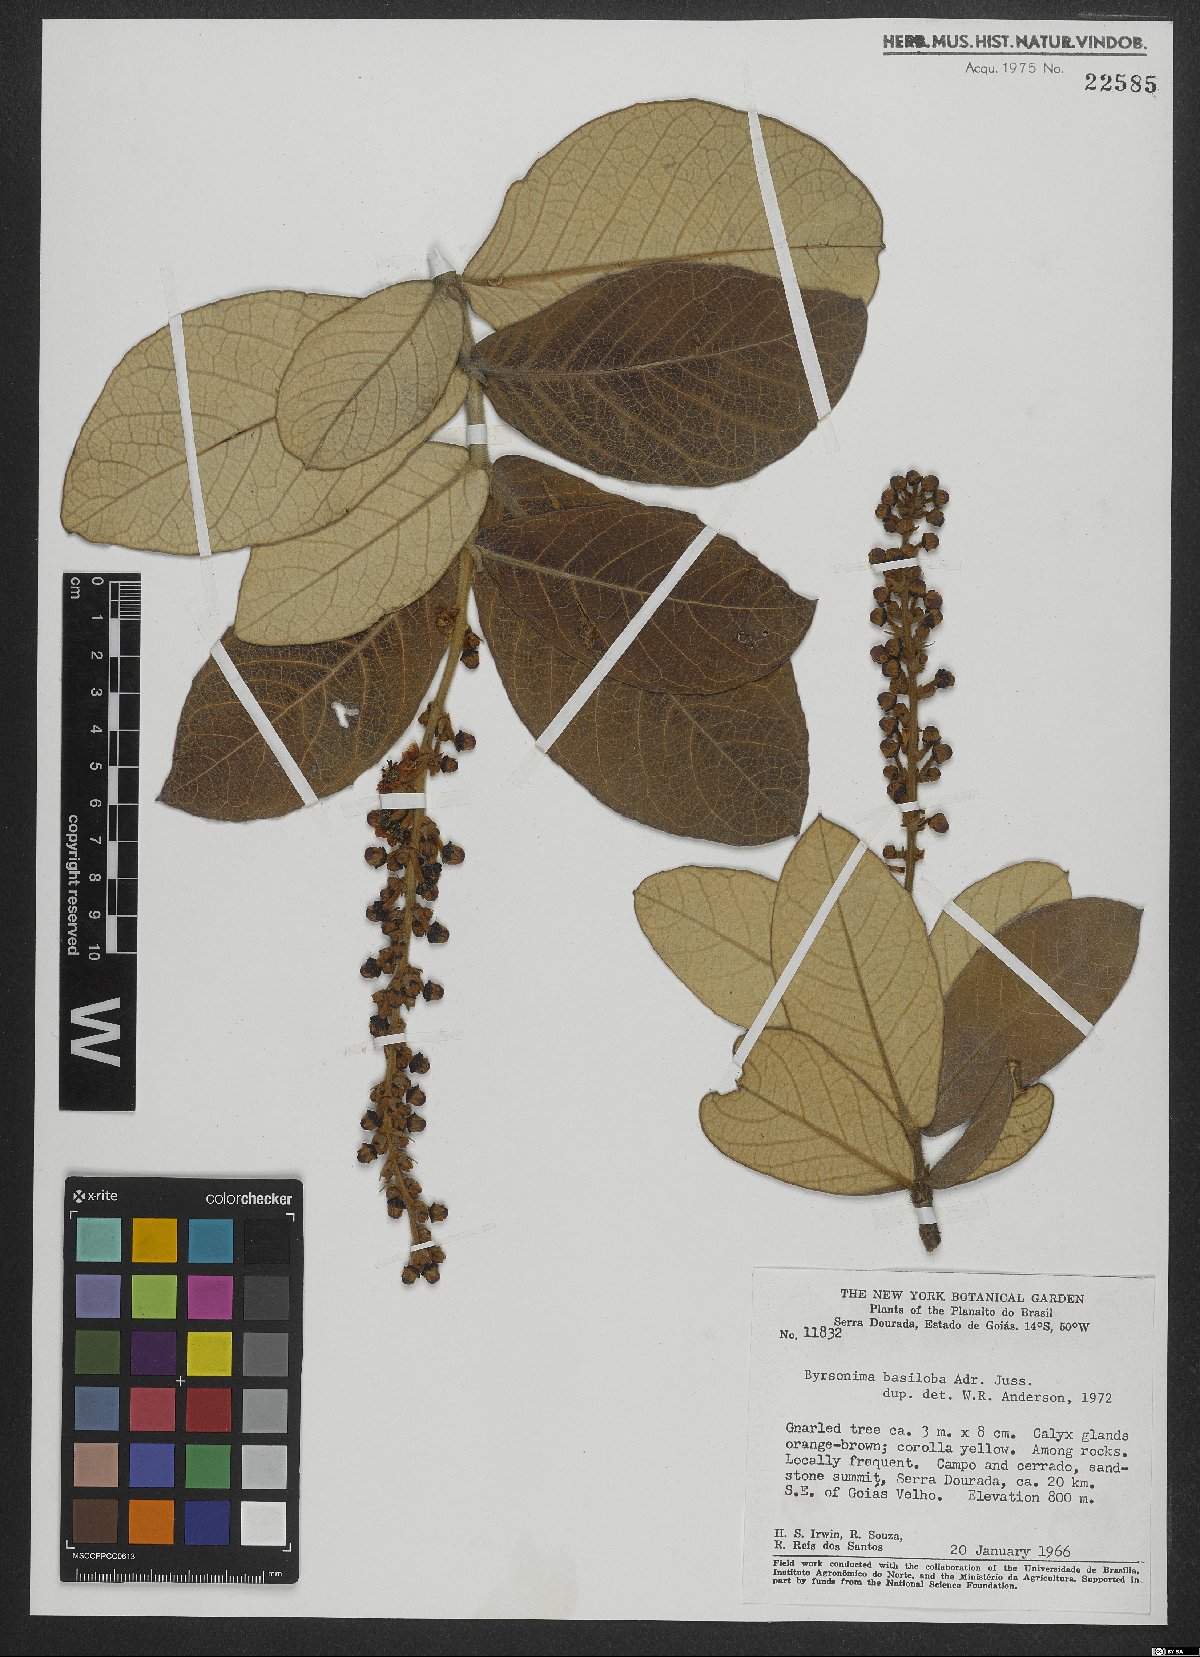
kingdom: Plantae
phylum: Tracheophyta
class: Magnoliopsida
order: Malpighiales
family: Malpighiaceae
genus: Byrsonima
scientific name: Byrsonima basiloba
